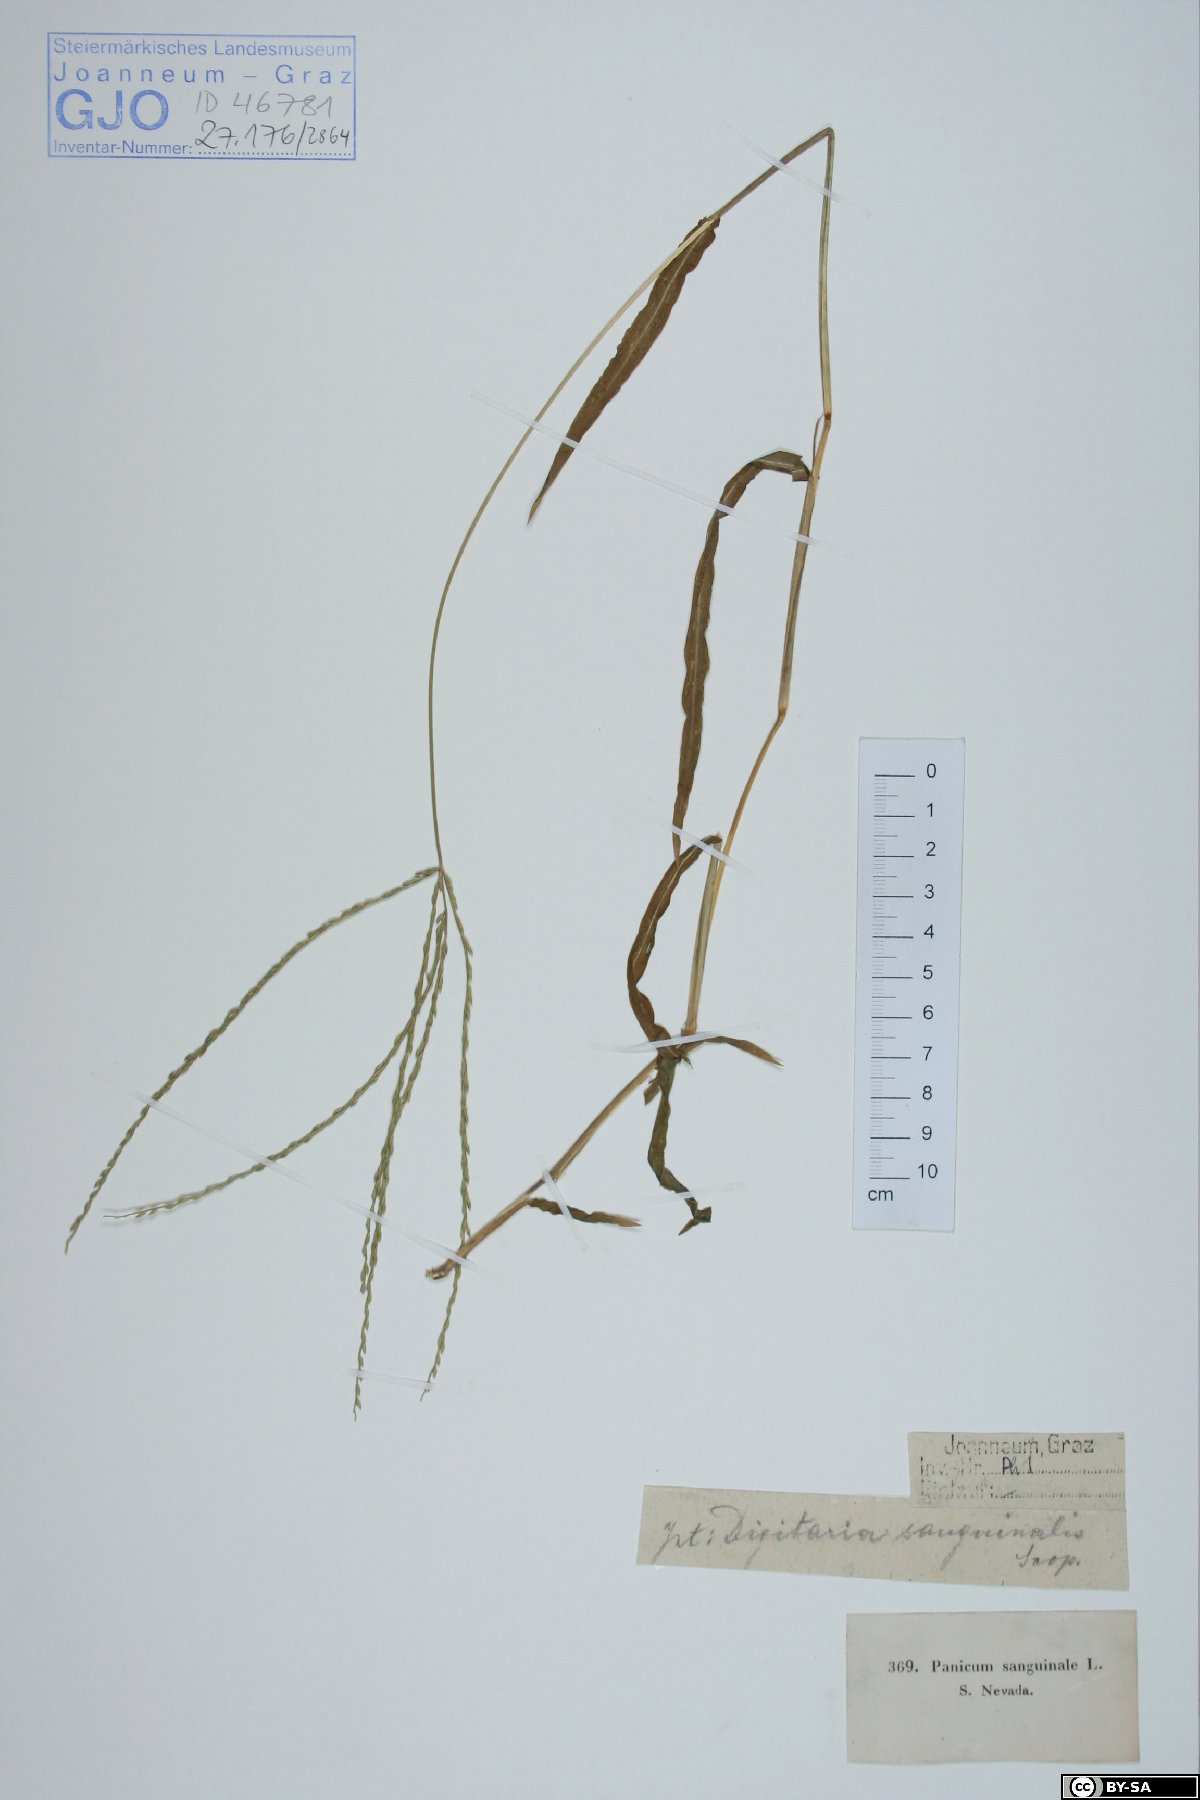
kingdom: Plantae
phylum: Tracheophyta
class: Liliopsida
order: Poales
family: Poaceae
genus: Digitaria
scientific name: Digitaria sanguinalis
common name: Hairy crabgrass
